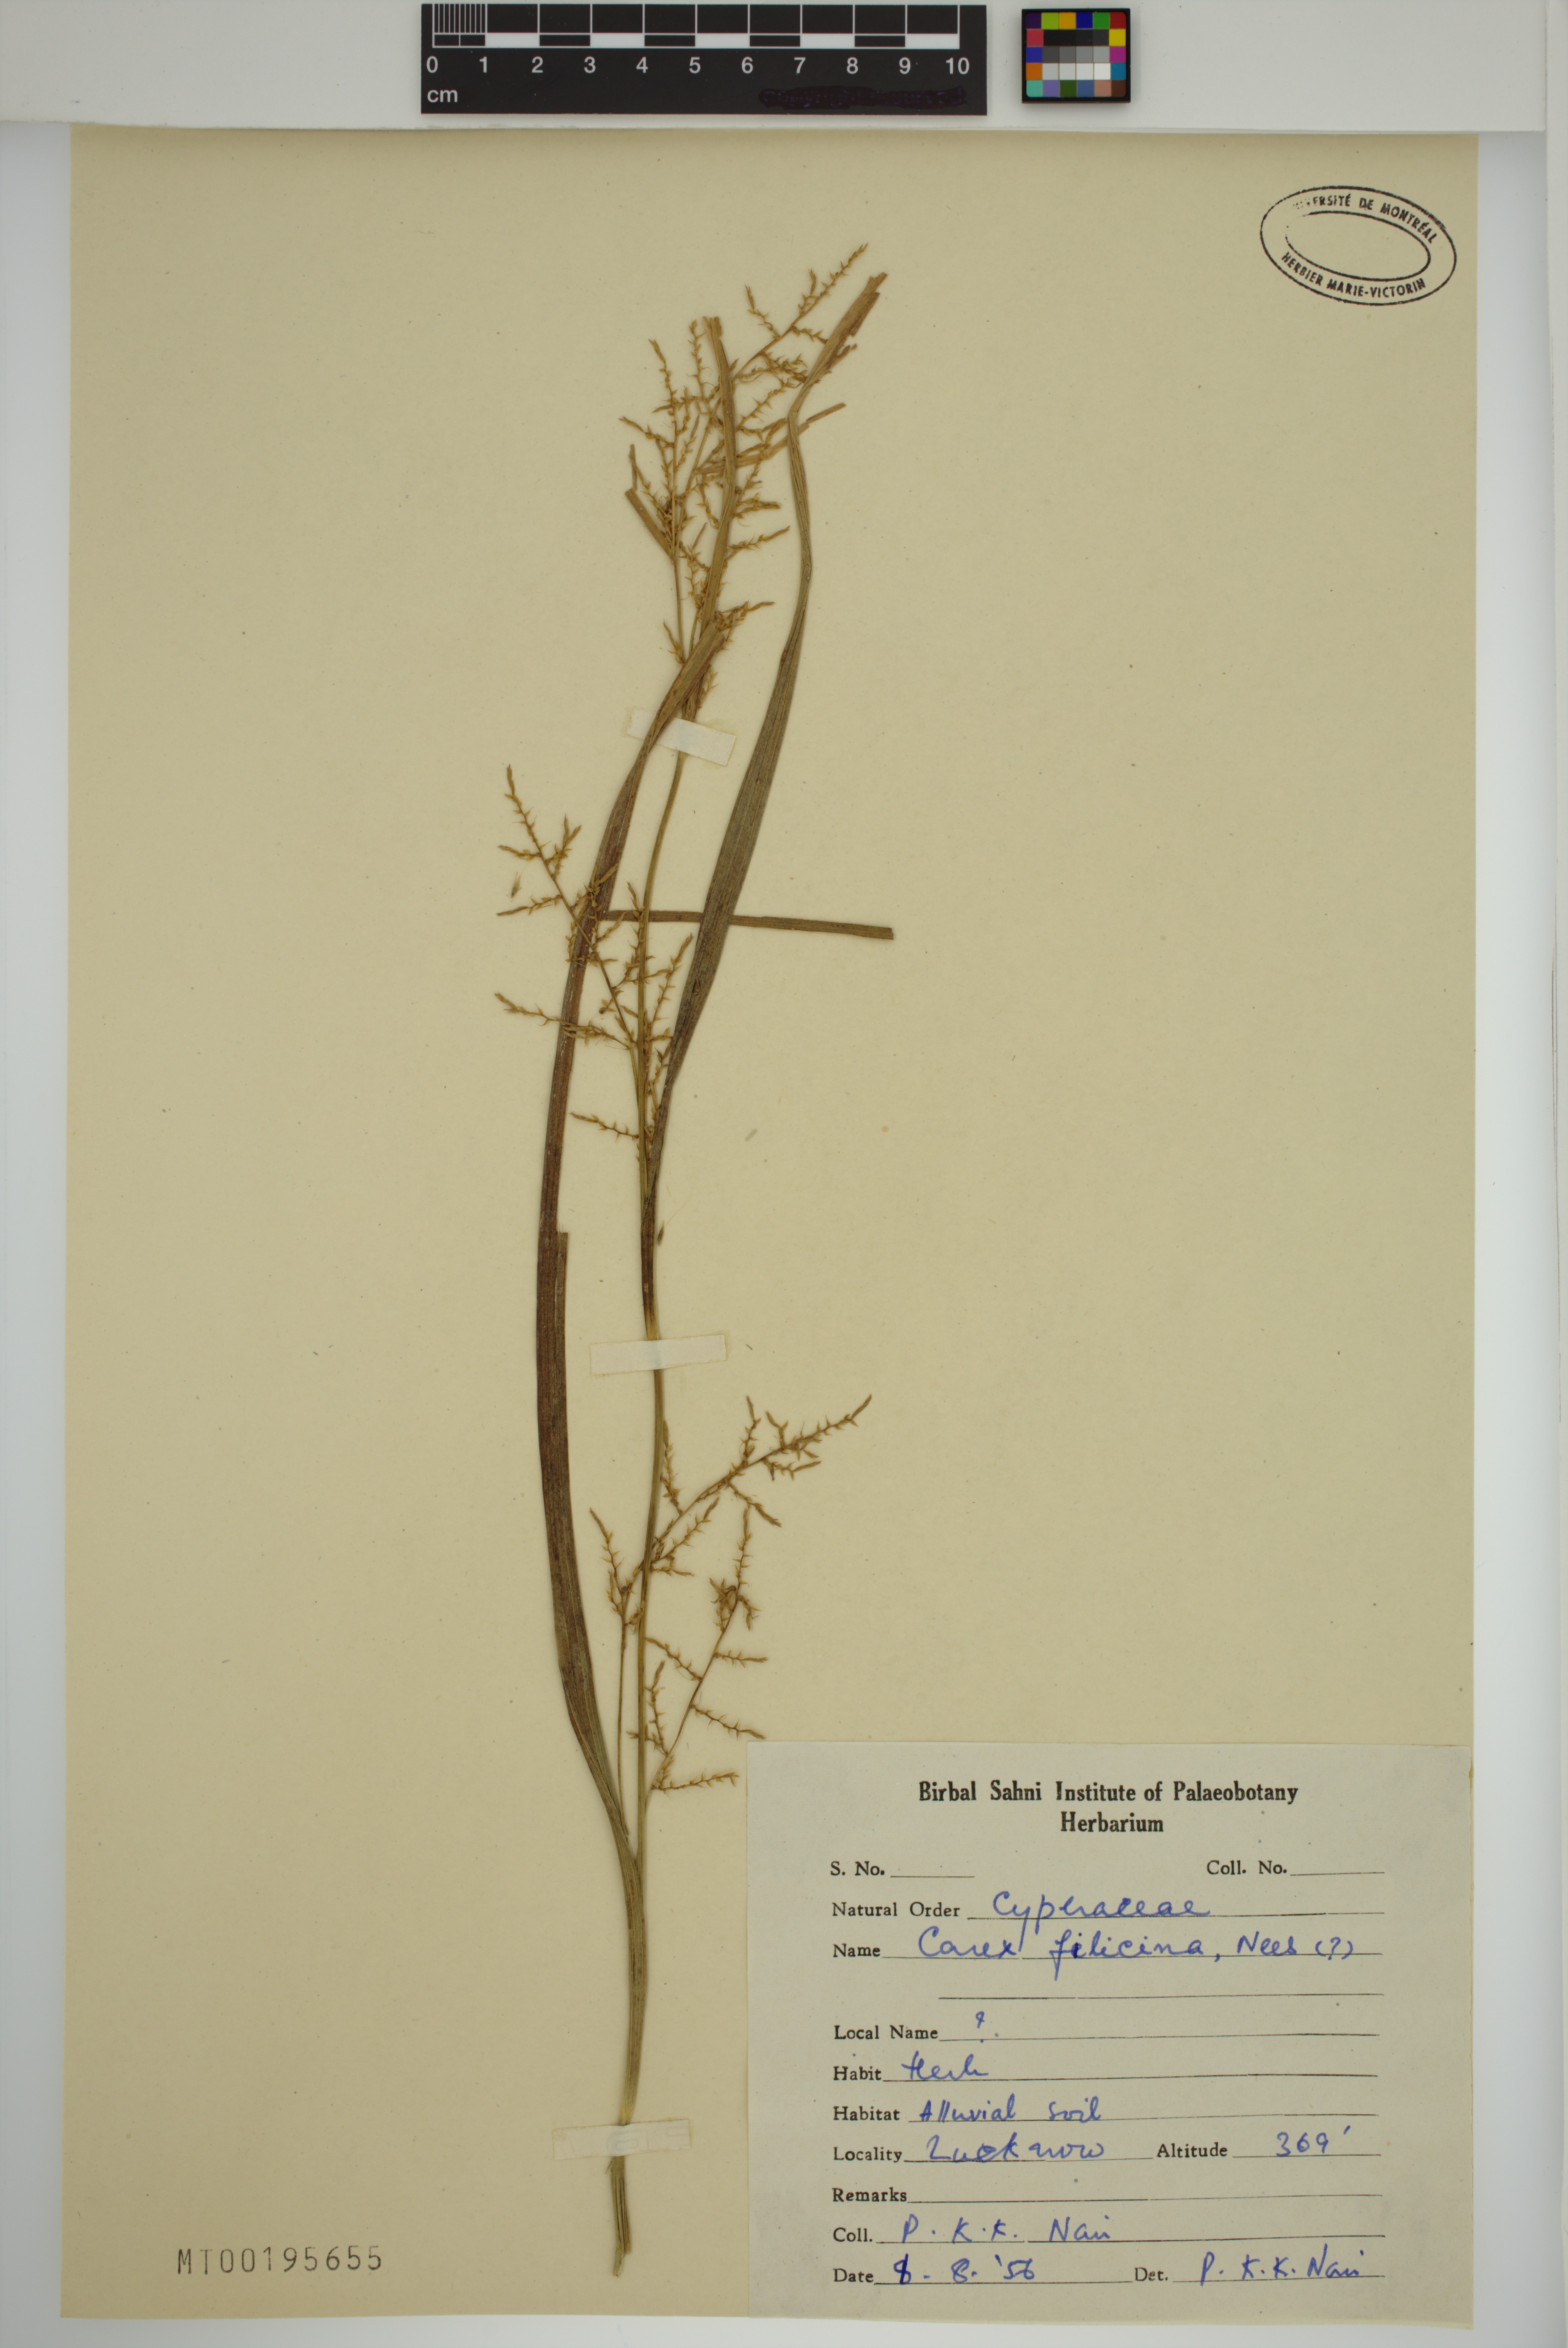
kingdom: Plantae
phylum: Tracheophyta
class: Liliopsida
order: Poales
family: Cyperaceae
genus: Carex
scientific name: Carex filicina
